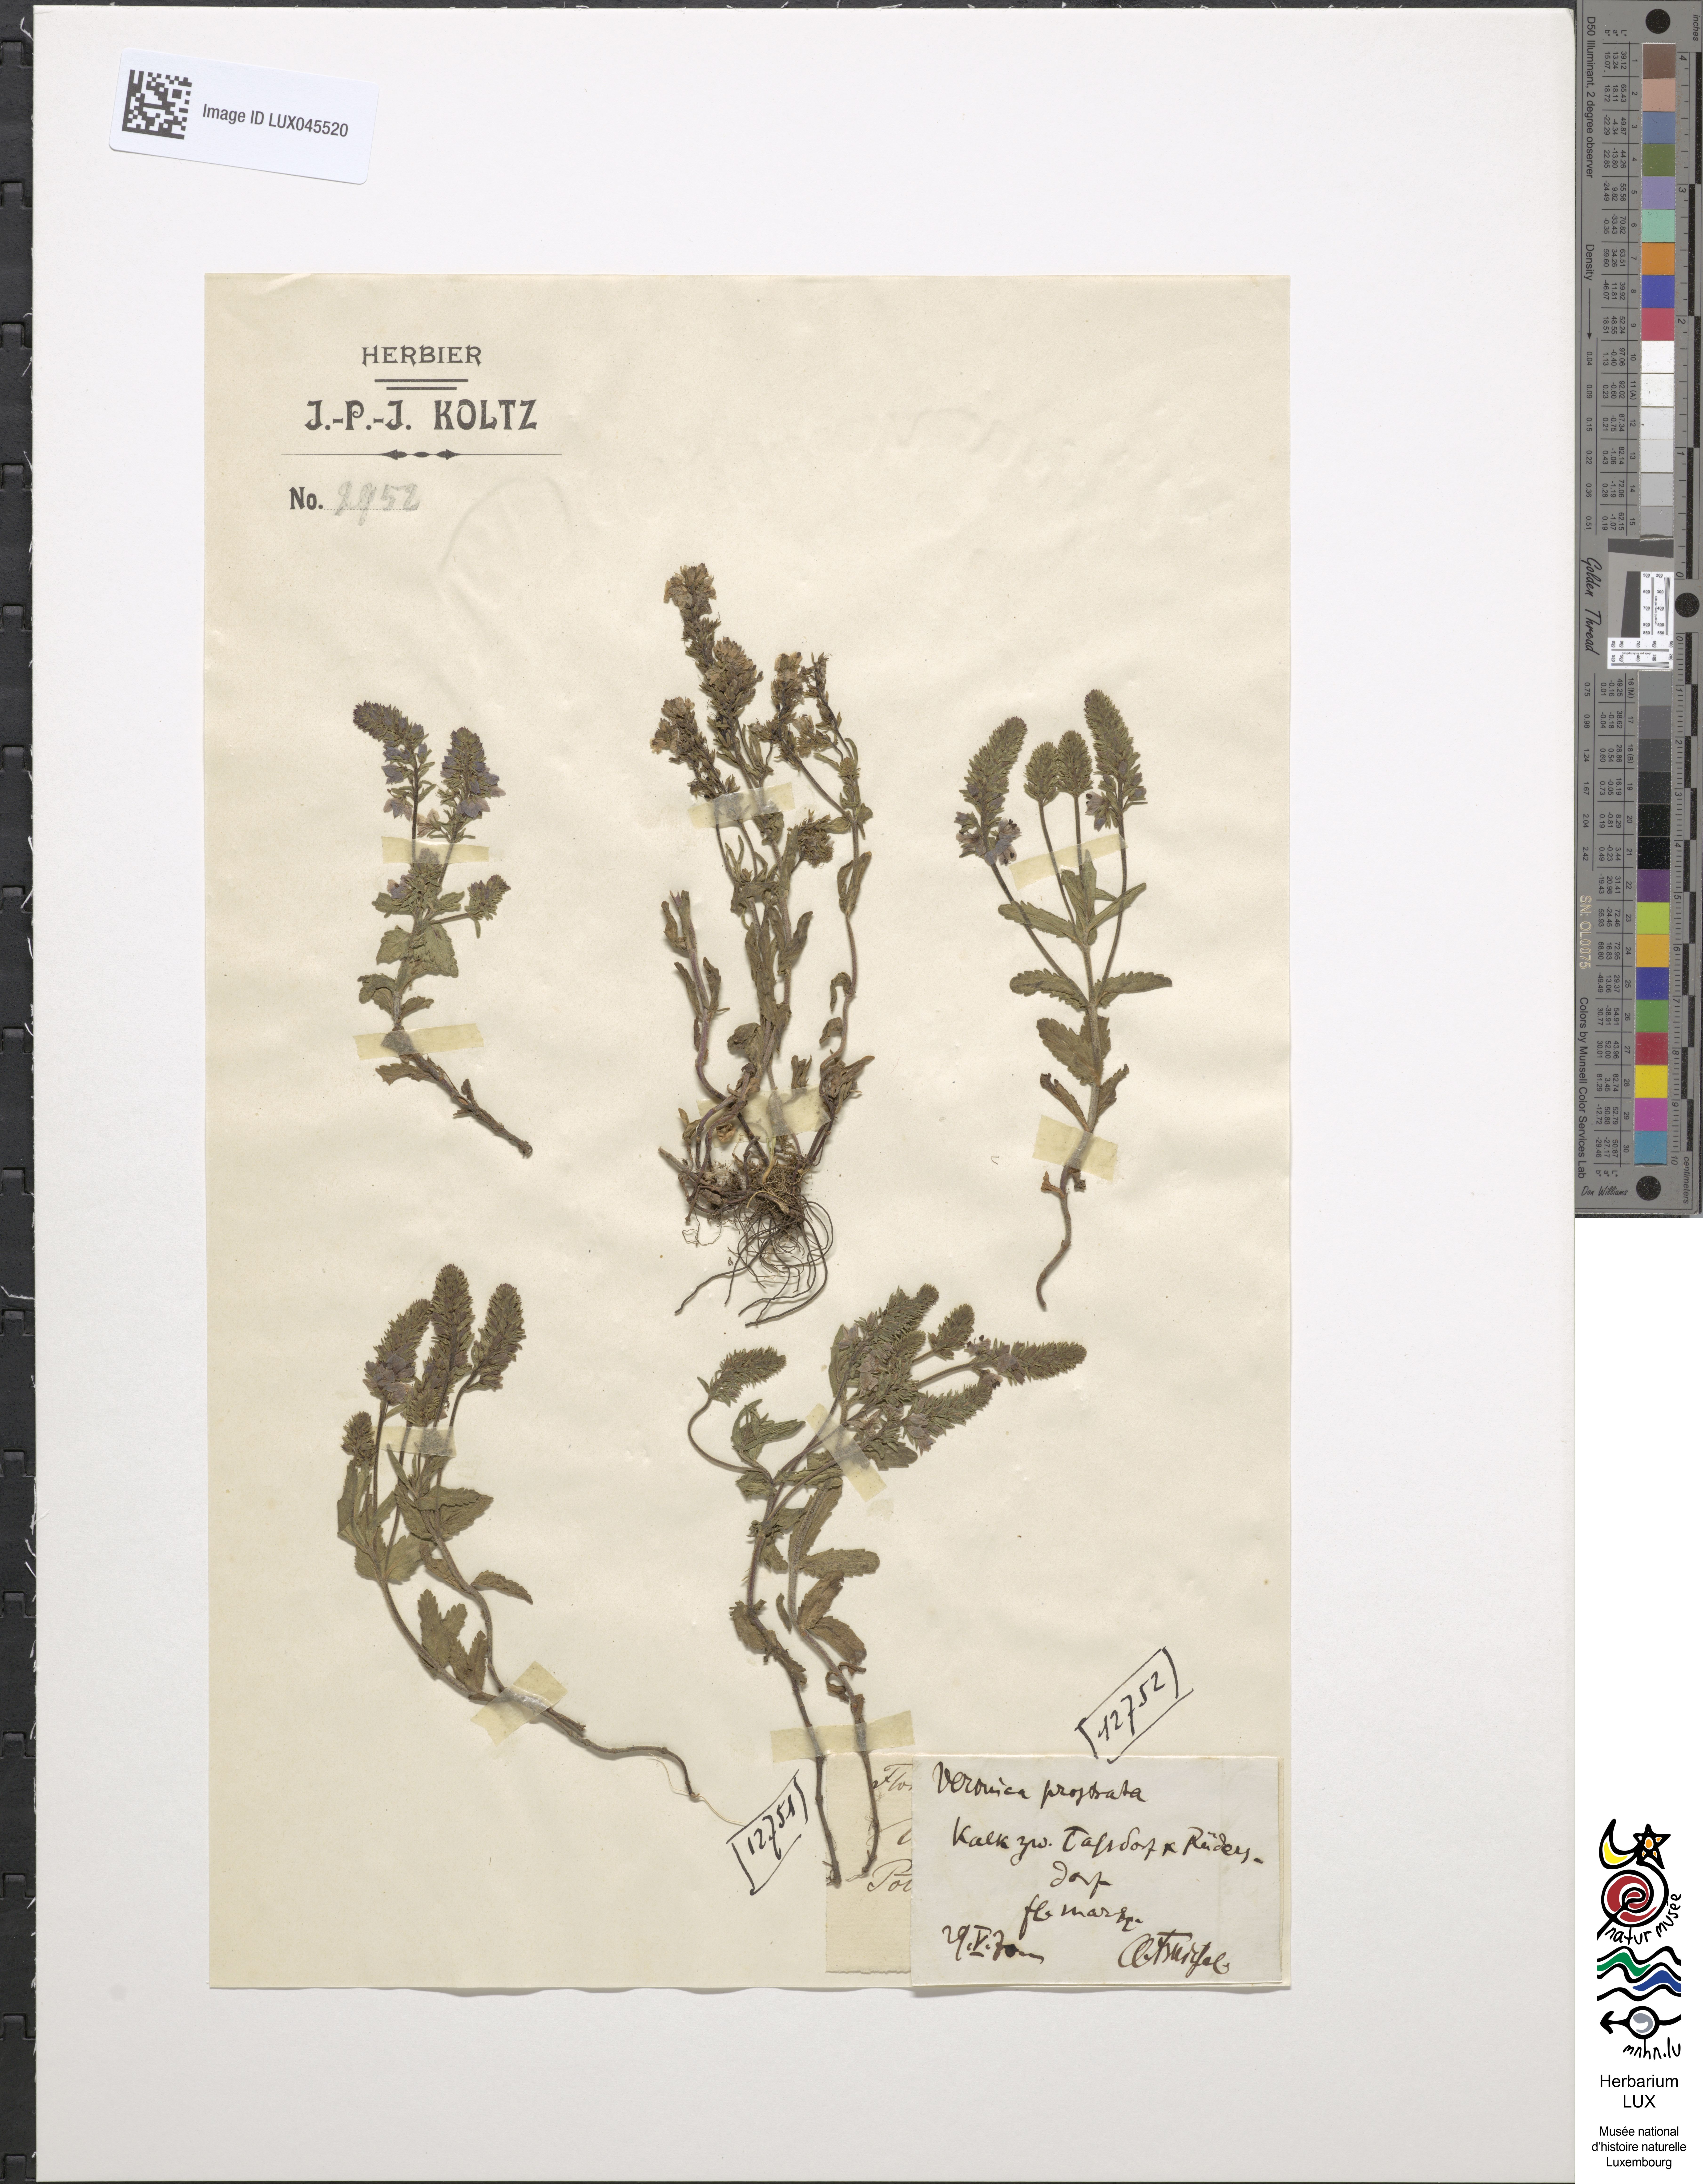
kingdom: Plantae
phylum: Tracheophyta
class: Magnoliopsida
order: Lamiales
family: Plantaginaceae
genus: Veronica
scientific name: Veronica prostrata
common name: Prostrate speedwell
